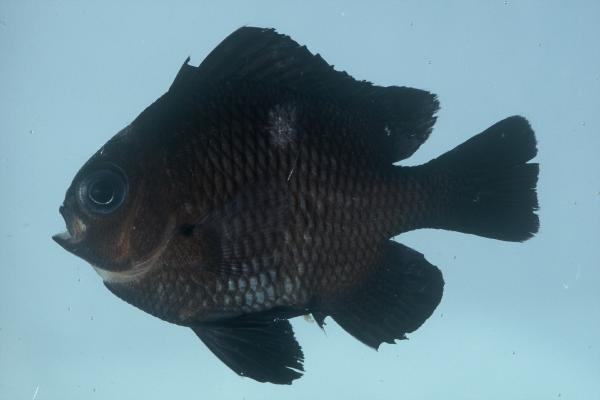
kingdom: Animalia
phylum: Chordata
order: Perciformes
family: Pomacentridae
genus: Dascyllus
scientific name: Dascyllus trimaculatus
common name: Threespot dascyllus
